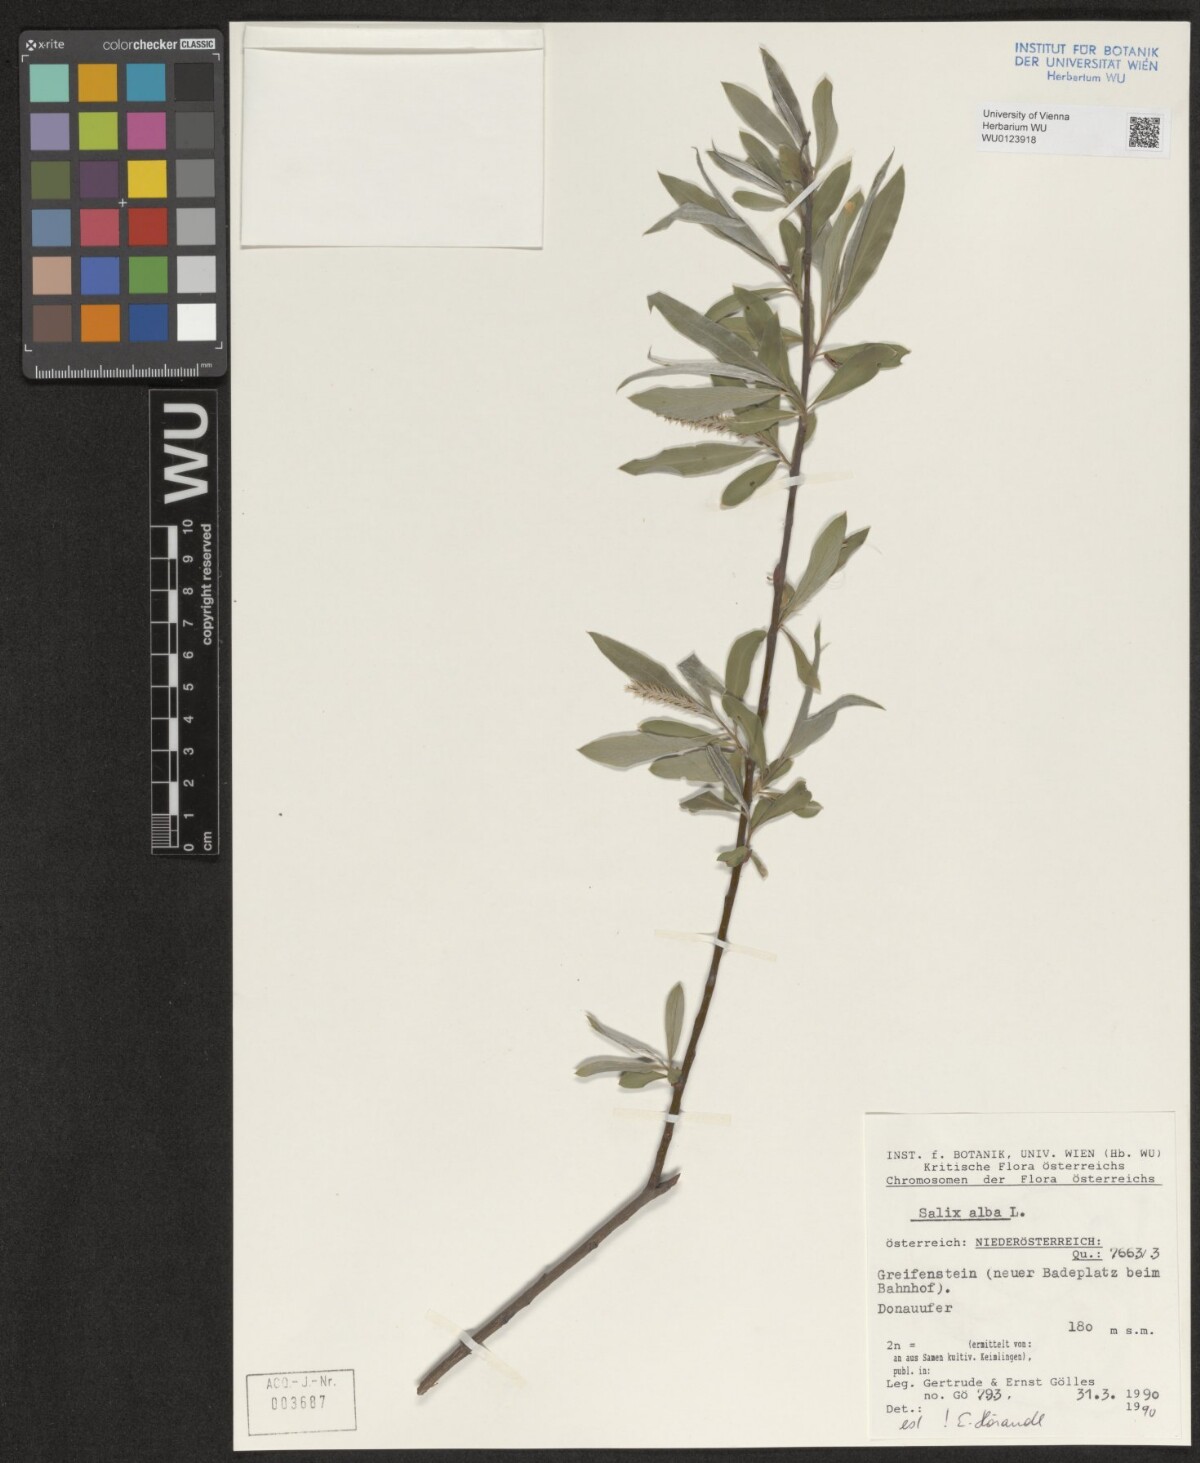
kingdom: Plantae
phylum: Tracheophyta
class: Magnoliopsida
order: Malpighiales
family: Salicaceae
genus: Salix
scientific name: Salix alba
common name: White willow
